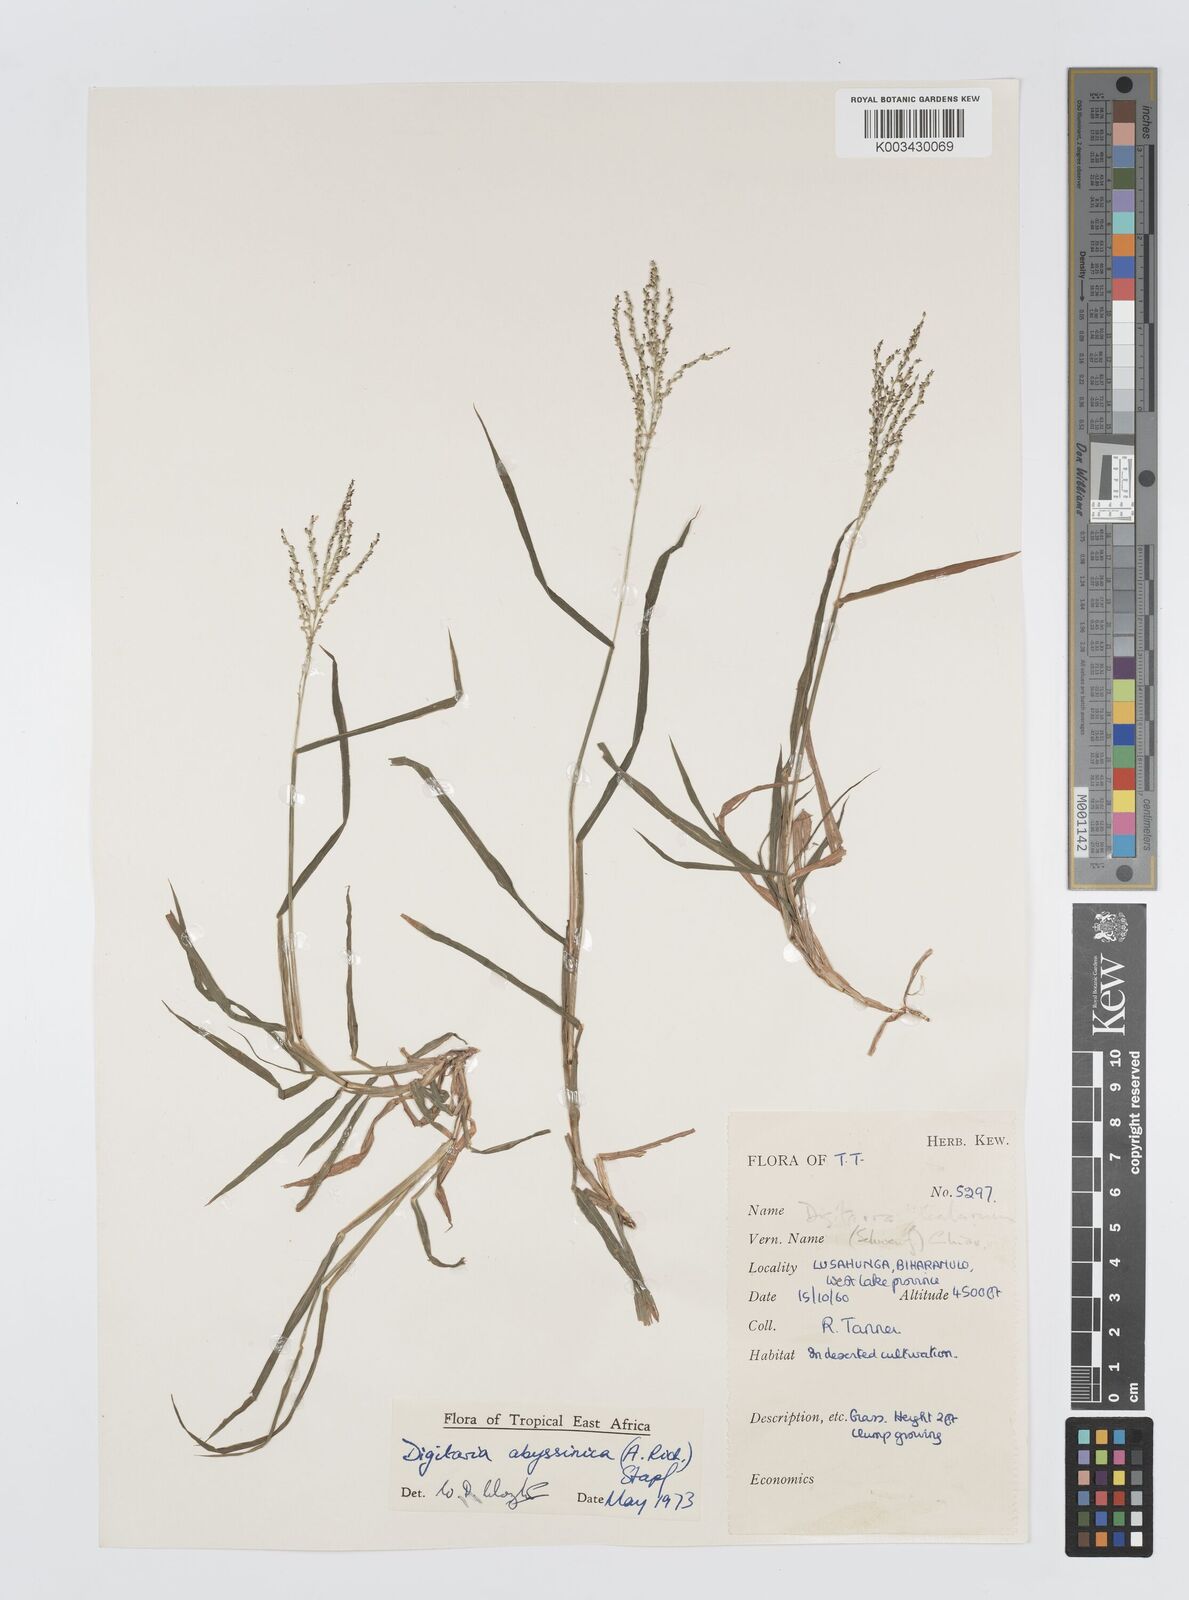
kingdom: Plantae
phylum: Tracheophyta
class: Liliopsida
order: Poales
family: Poaceae
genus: Digitaria
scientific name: Digitaria abyssinica
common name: African couchgrass
